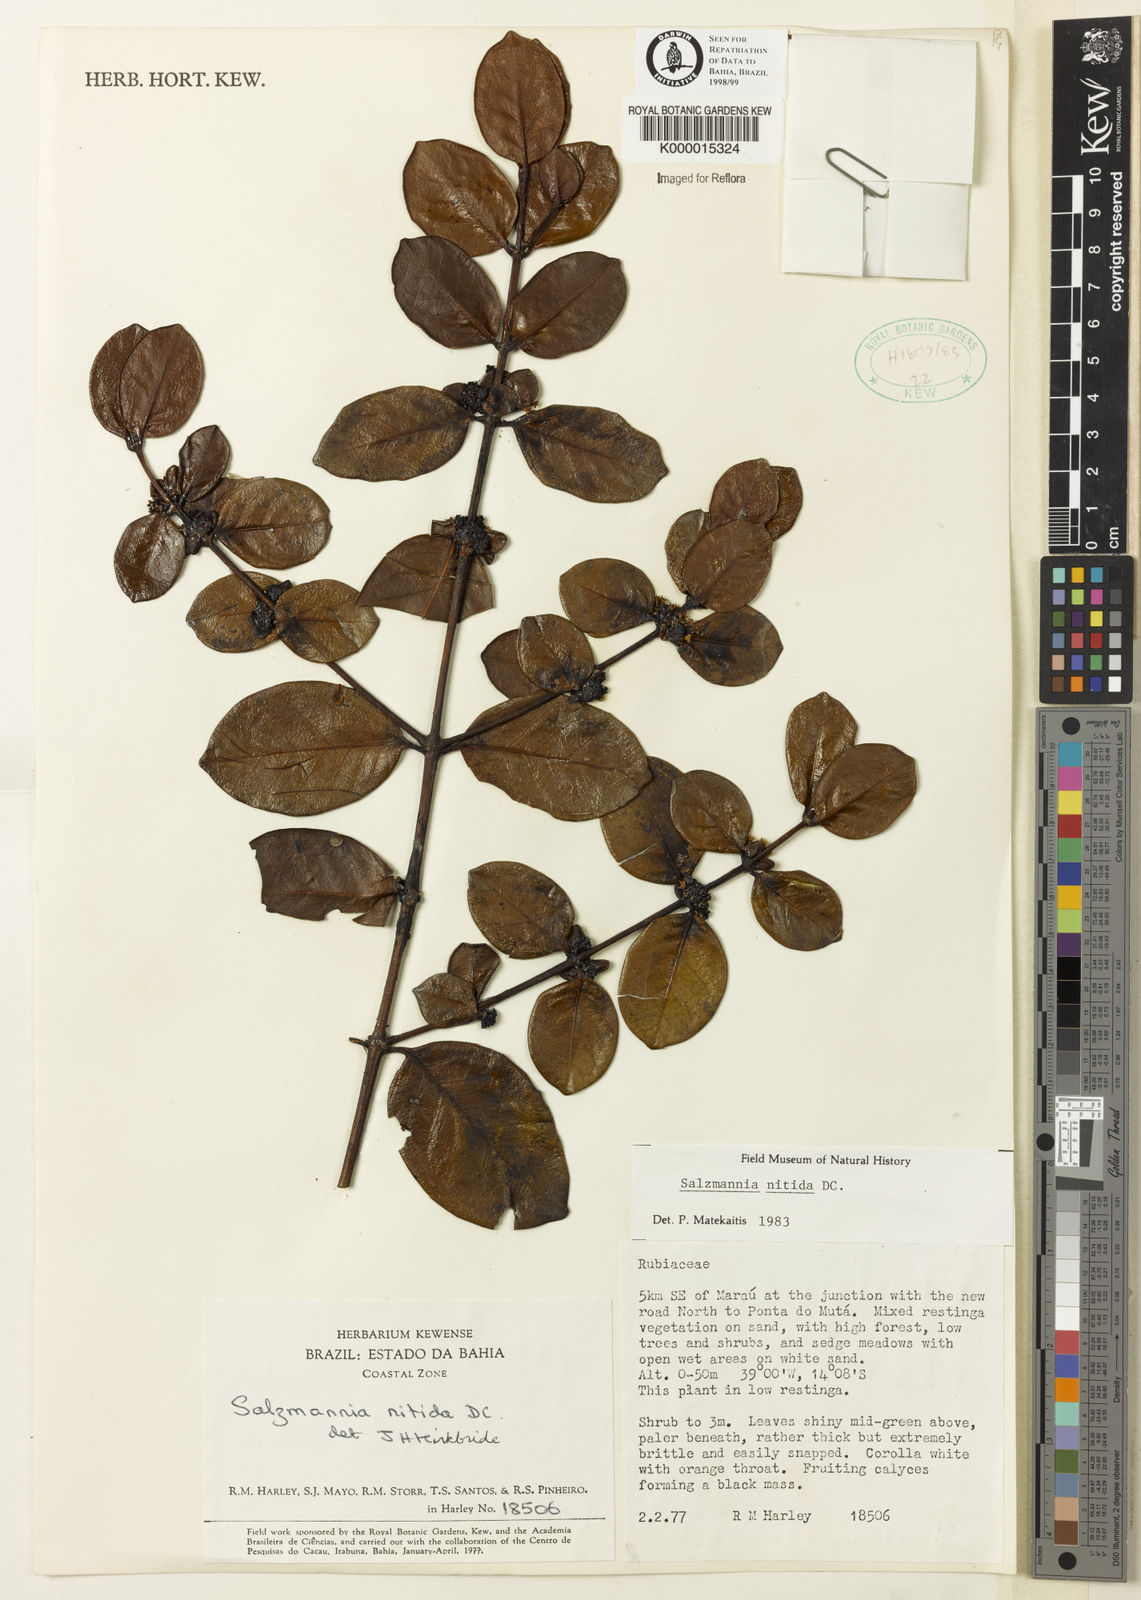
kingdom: Plantae
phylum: Tracheophyta
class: Magnoliopsida
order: Gentianales
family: Rubiaceae
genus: Salzmannia
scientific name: Salzmannia nitida
